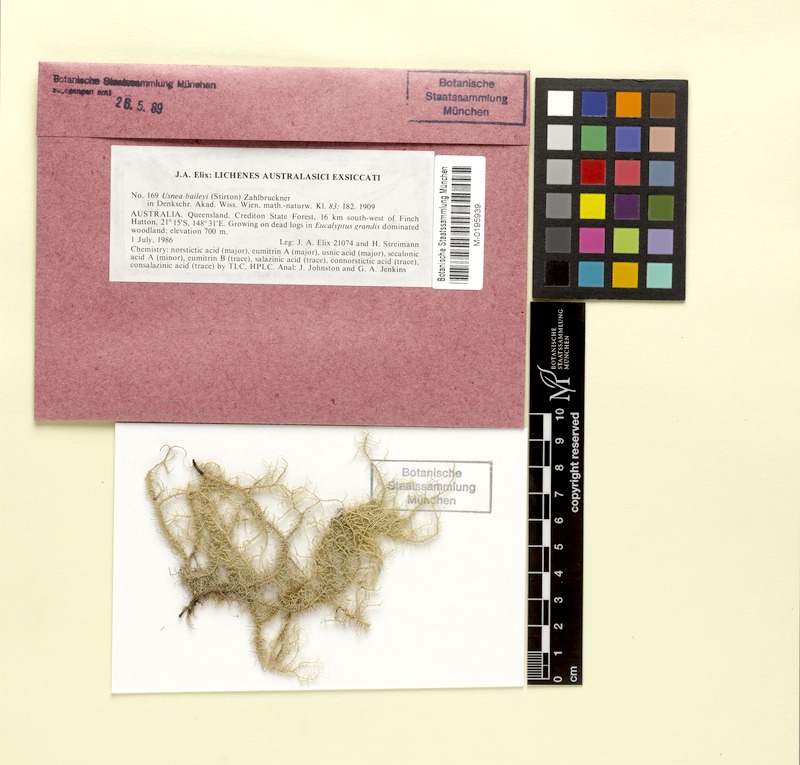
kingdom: Fungi
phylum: Ascomycota
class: Lecanoromycetes
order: Lecanorales
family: Parmeliaceae
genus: Eumitria
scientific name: Eumitria baileyi
